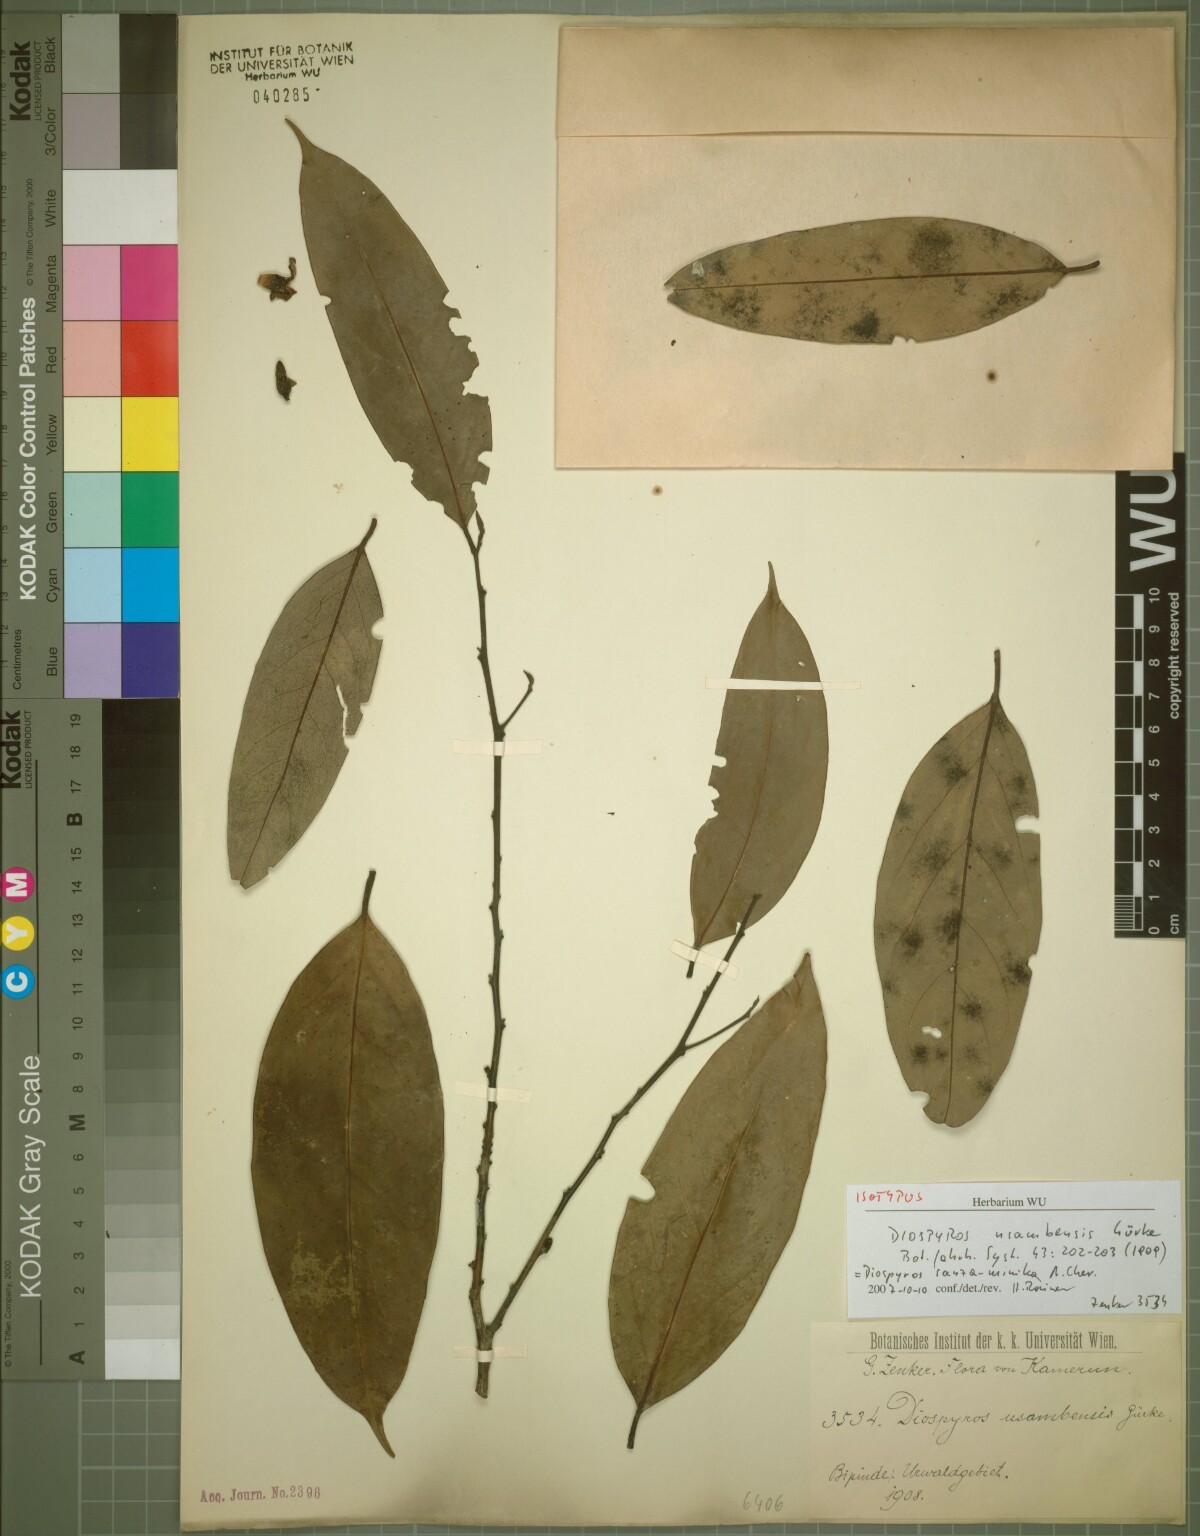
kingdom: Plantae
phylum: Tracheophyta
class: Magnoliopsida
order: Ericales
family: Ebenaceae
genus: Diospyros
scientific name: Diospyros sanza-minika
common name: Flint bark
